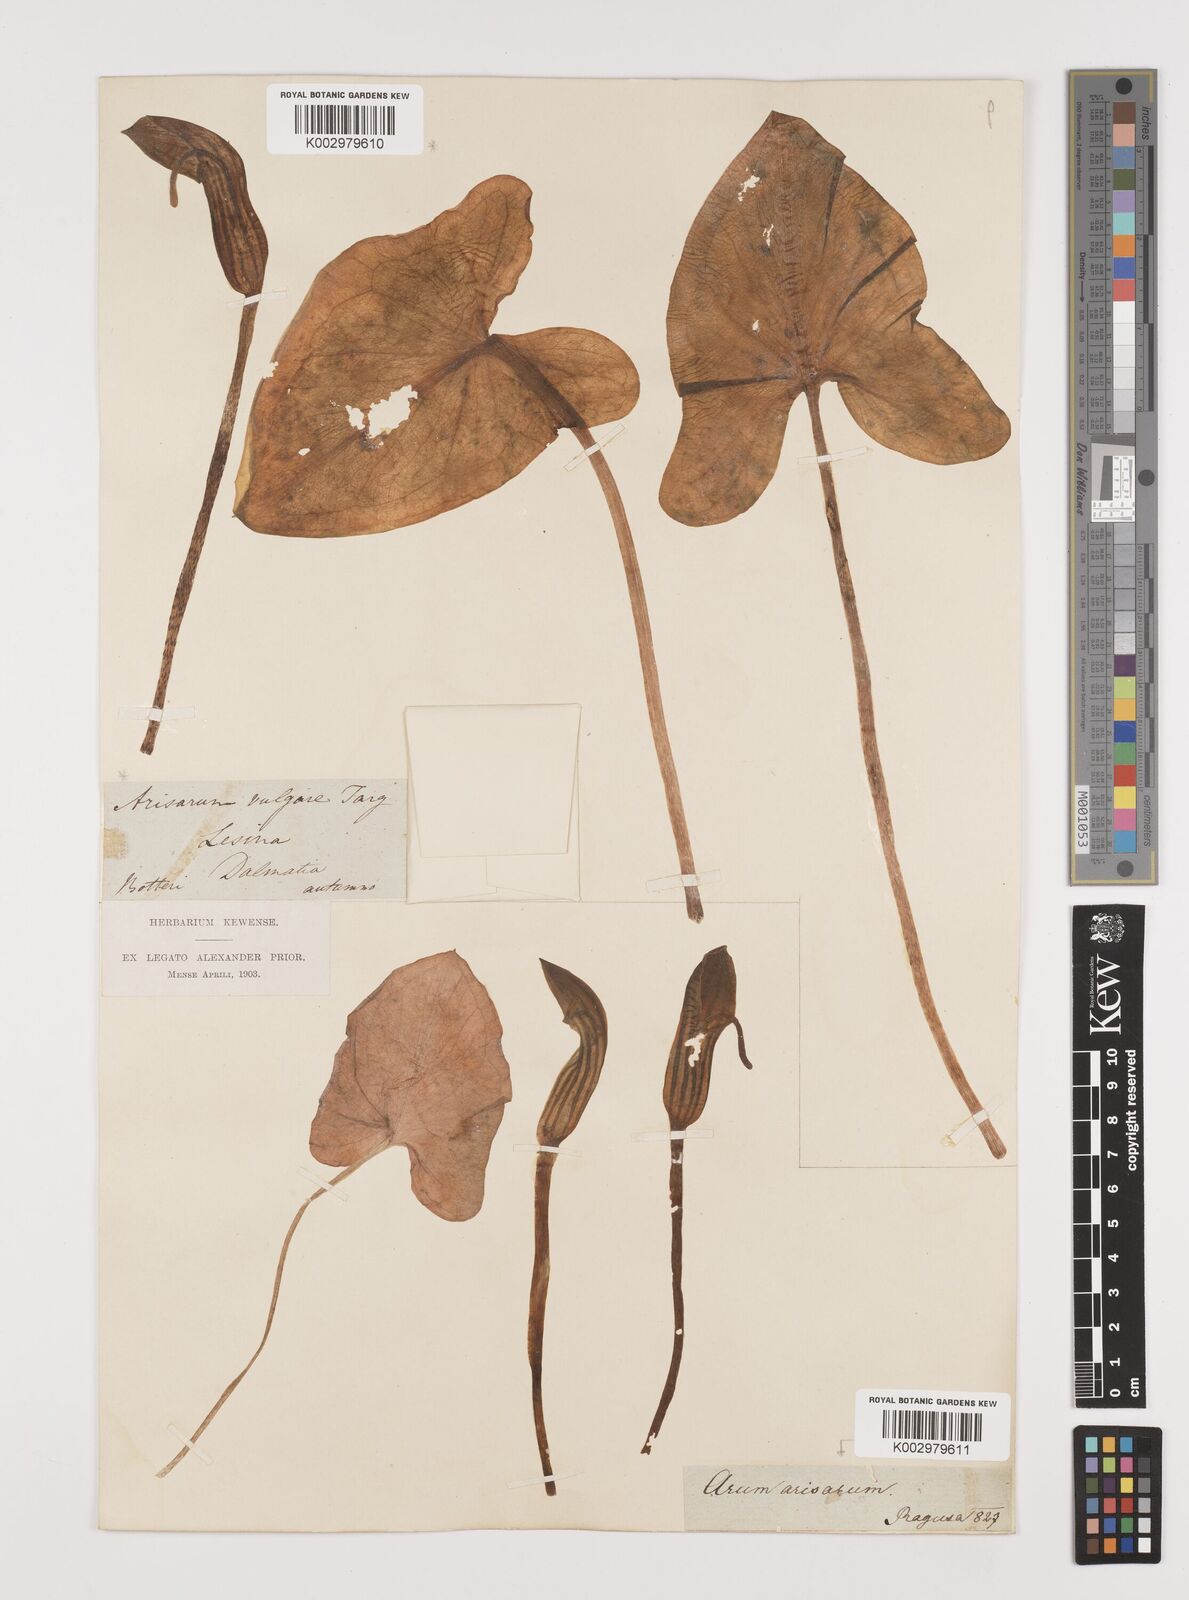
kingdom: Plantae
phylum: Tracheophyta
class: Liliopsida
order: Alismatales
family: Araceae
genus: Arisarum
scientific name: Arisarum vulgare
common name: Common arisarum
